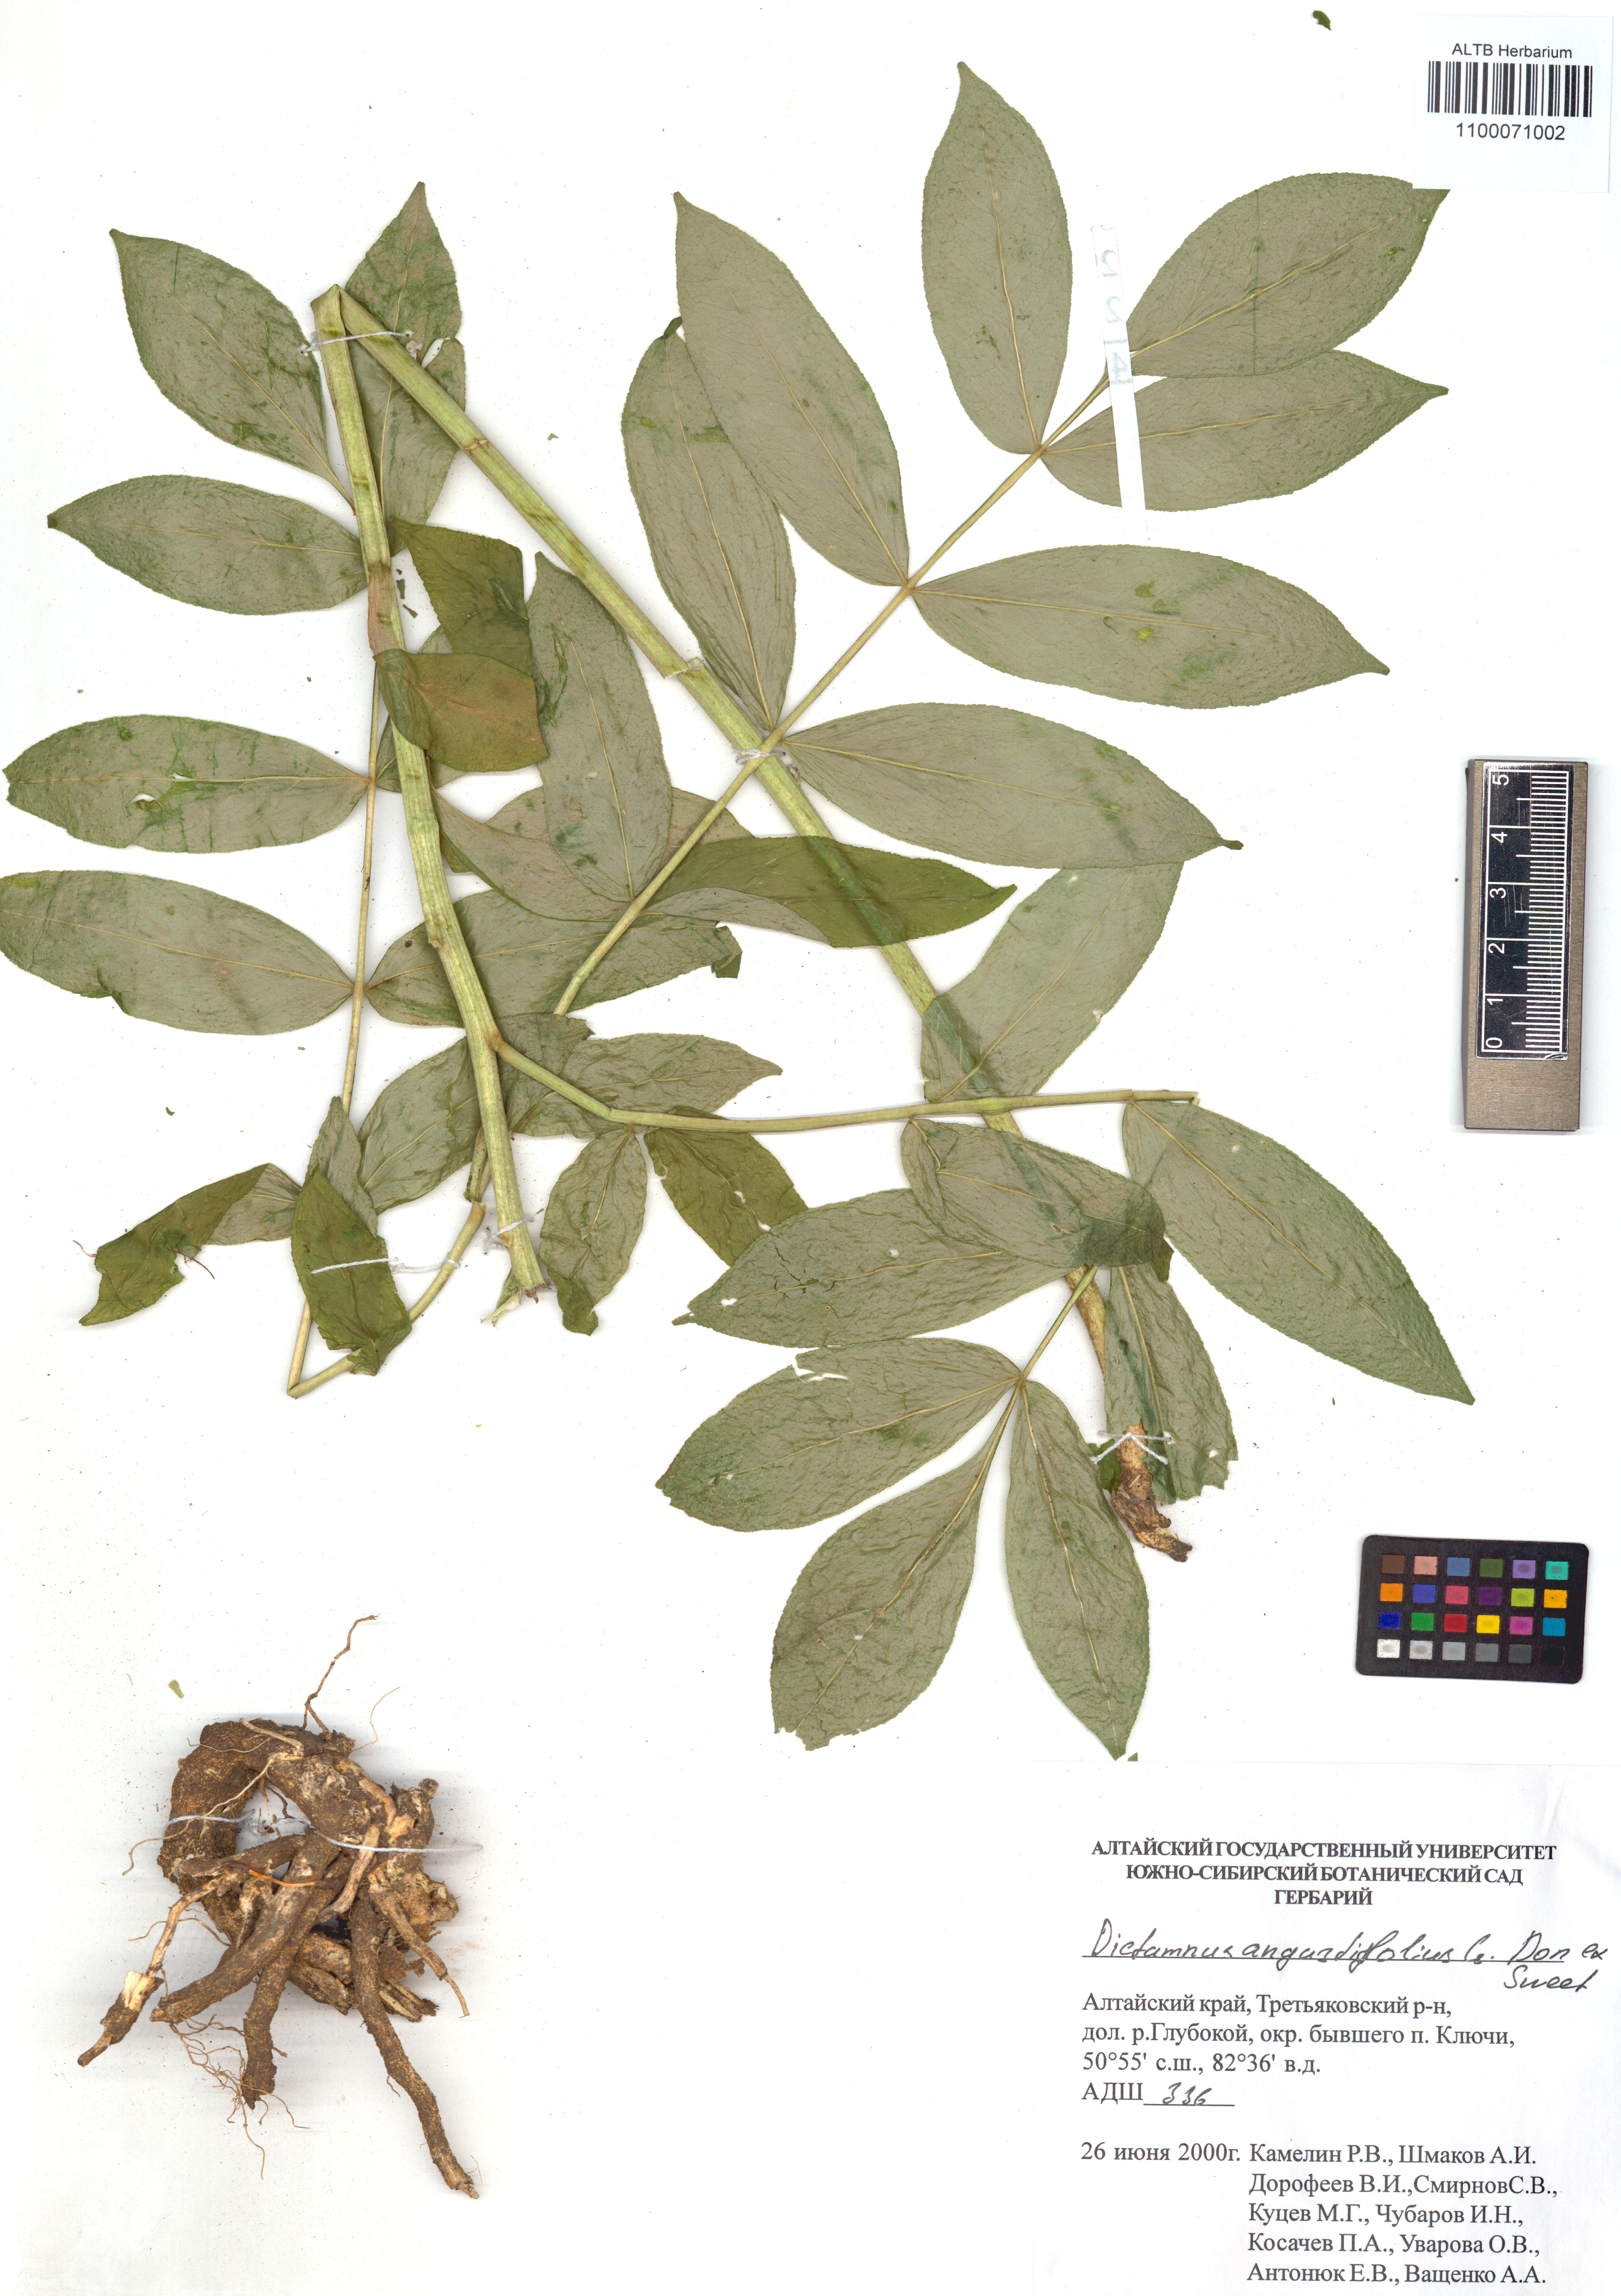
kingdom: Plantae
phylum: Tracheophyta
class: Magnoliopsida
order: Sapindales
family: Rutaceae
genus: Dictamnus
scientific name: Dictamnus albus
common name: Gasplant
